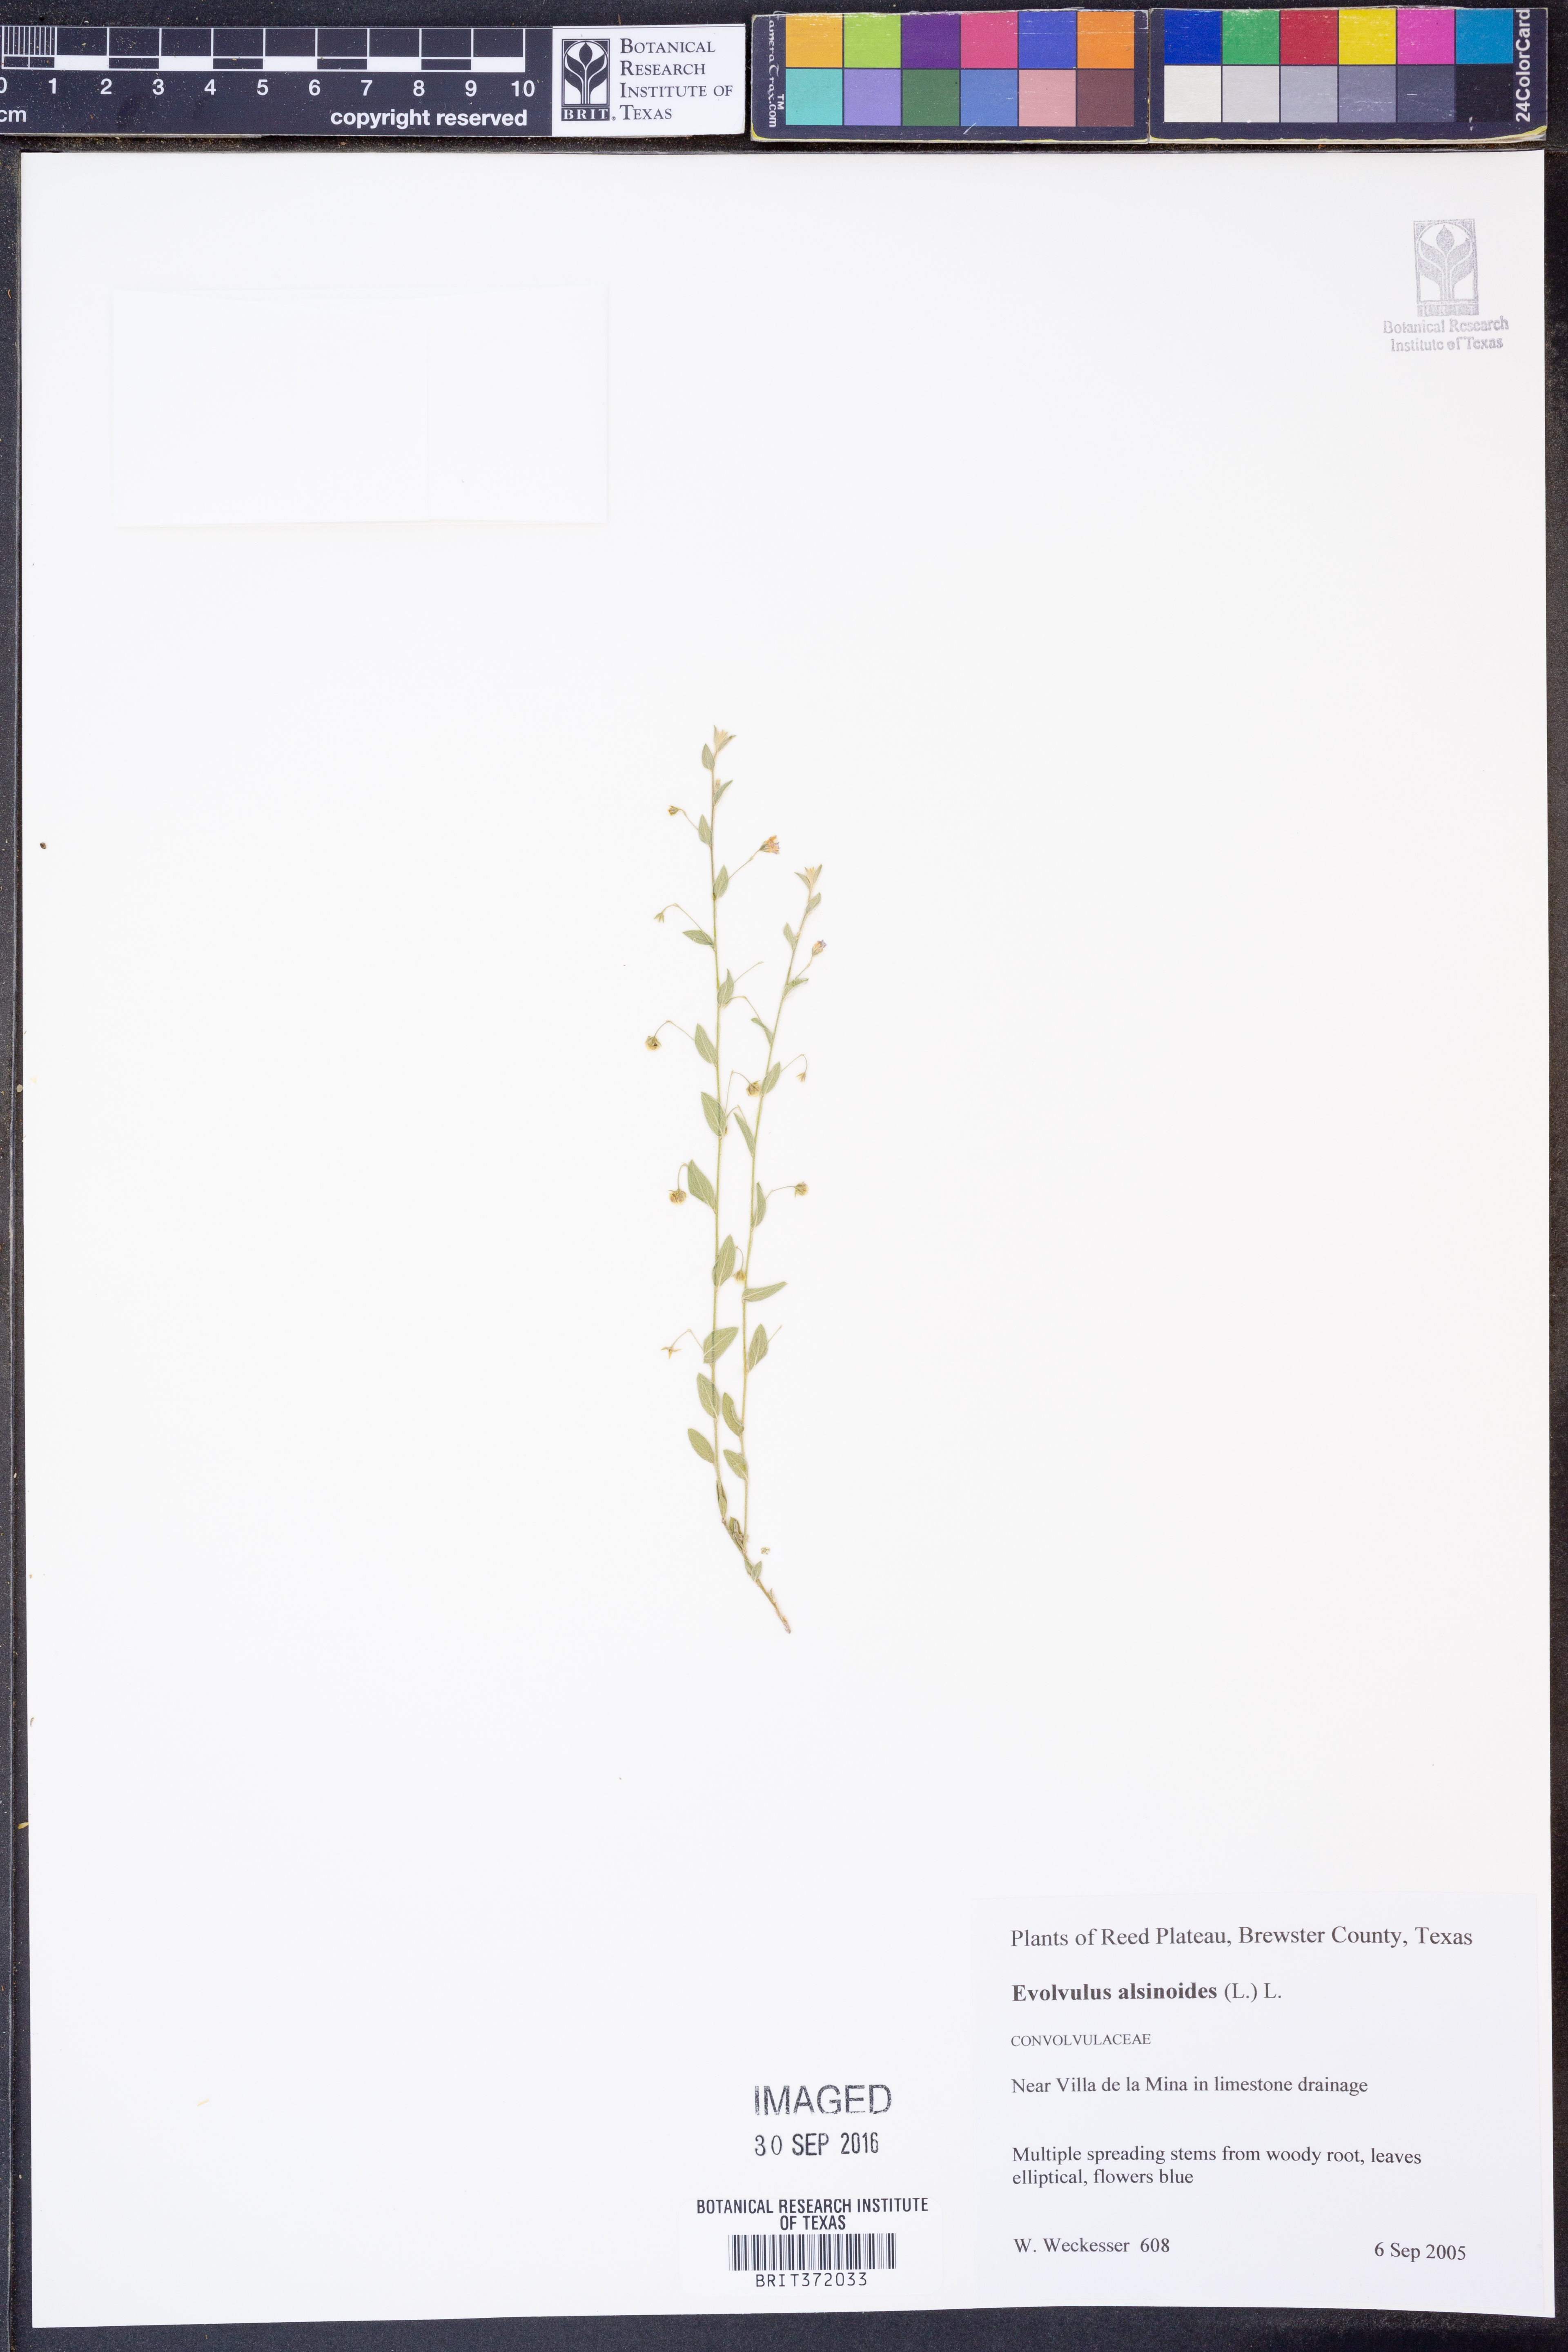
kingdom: Plantae
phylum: Tracheophyta
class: Magnoliopsida
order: Solanales
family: Convolvulaceae
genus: Evolvulus
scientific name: Evolvulus alsinoides
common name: Slender dwarf morning-glory
